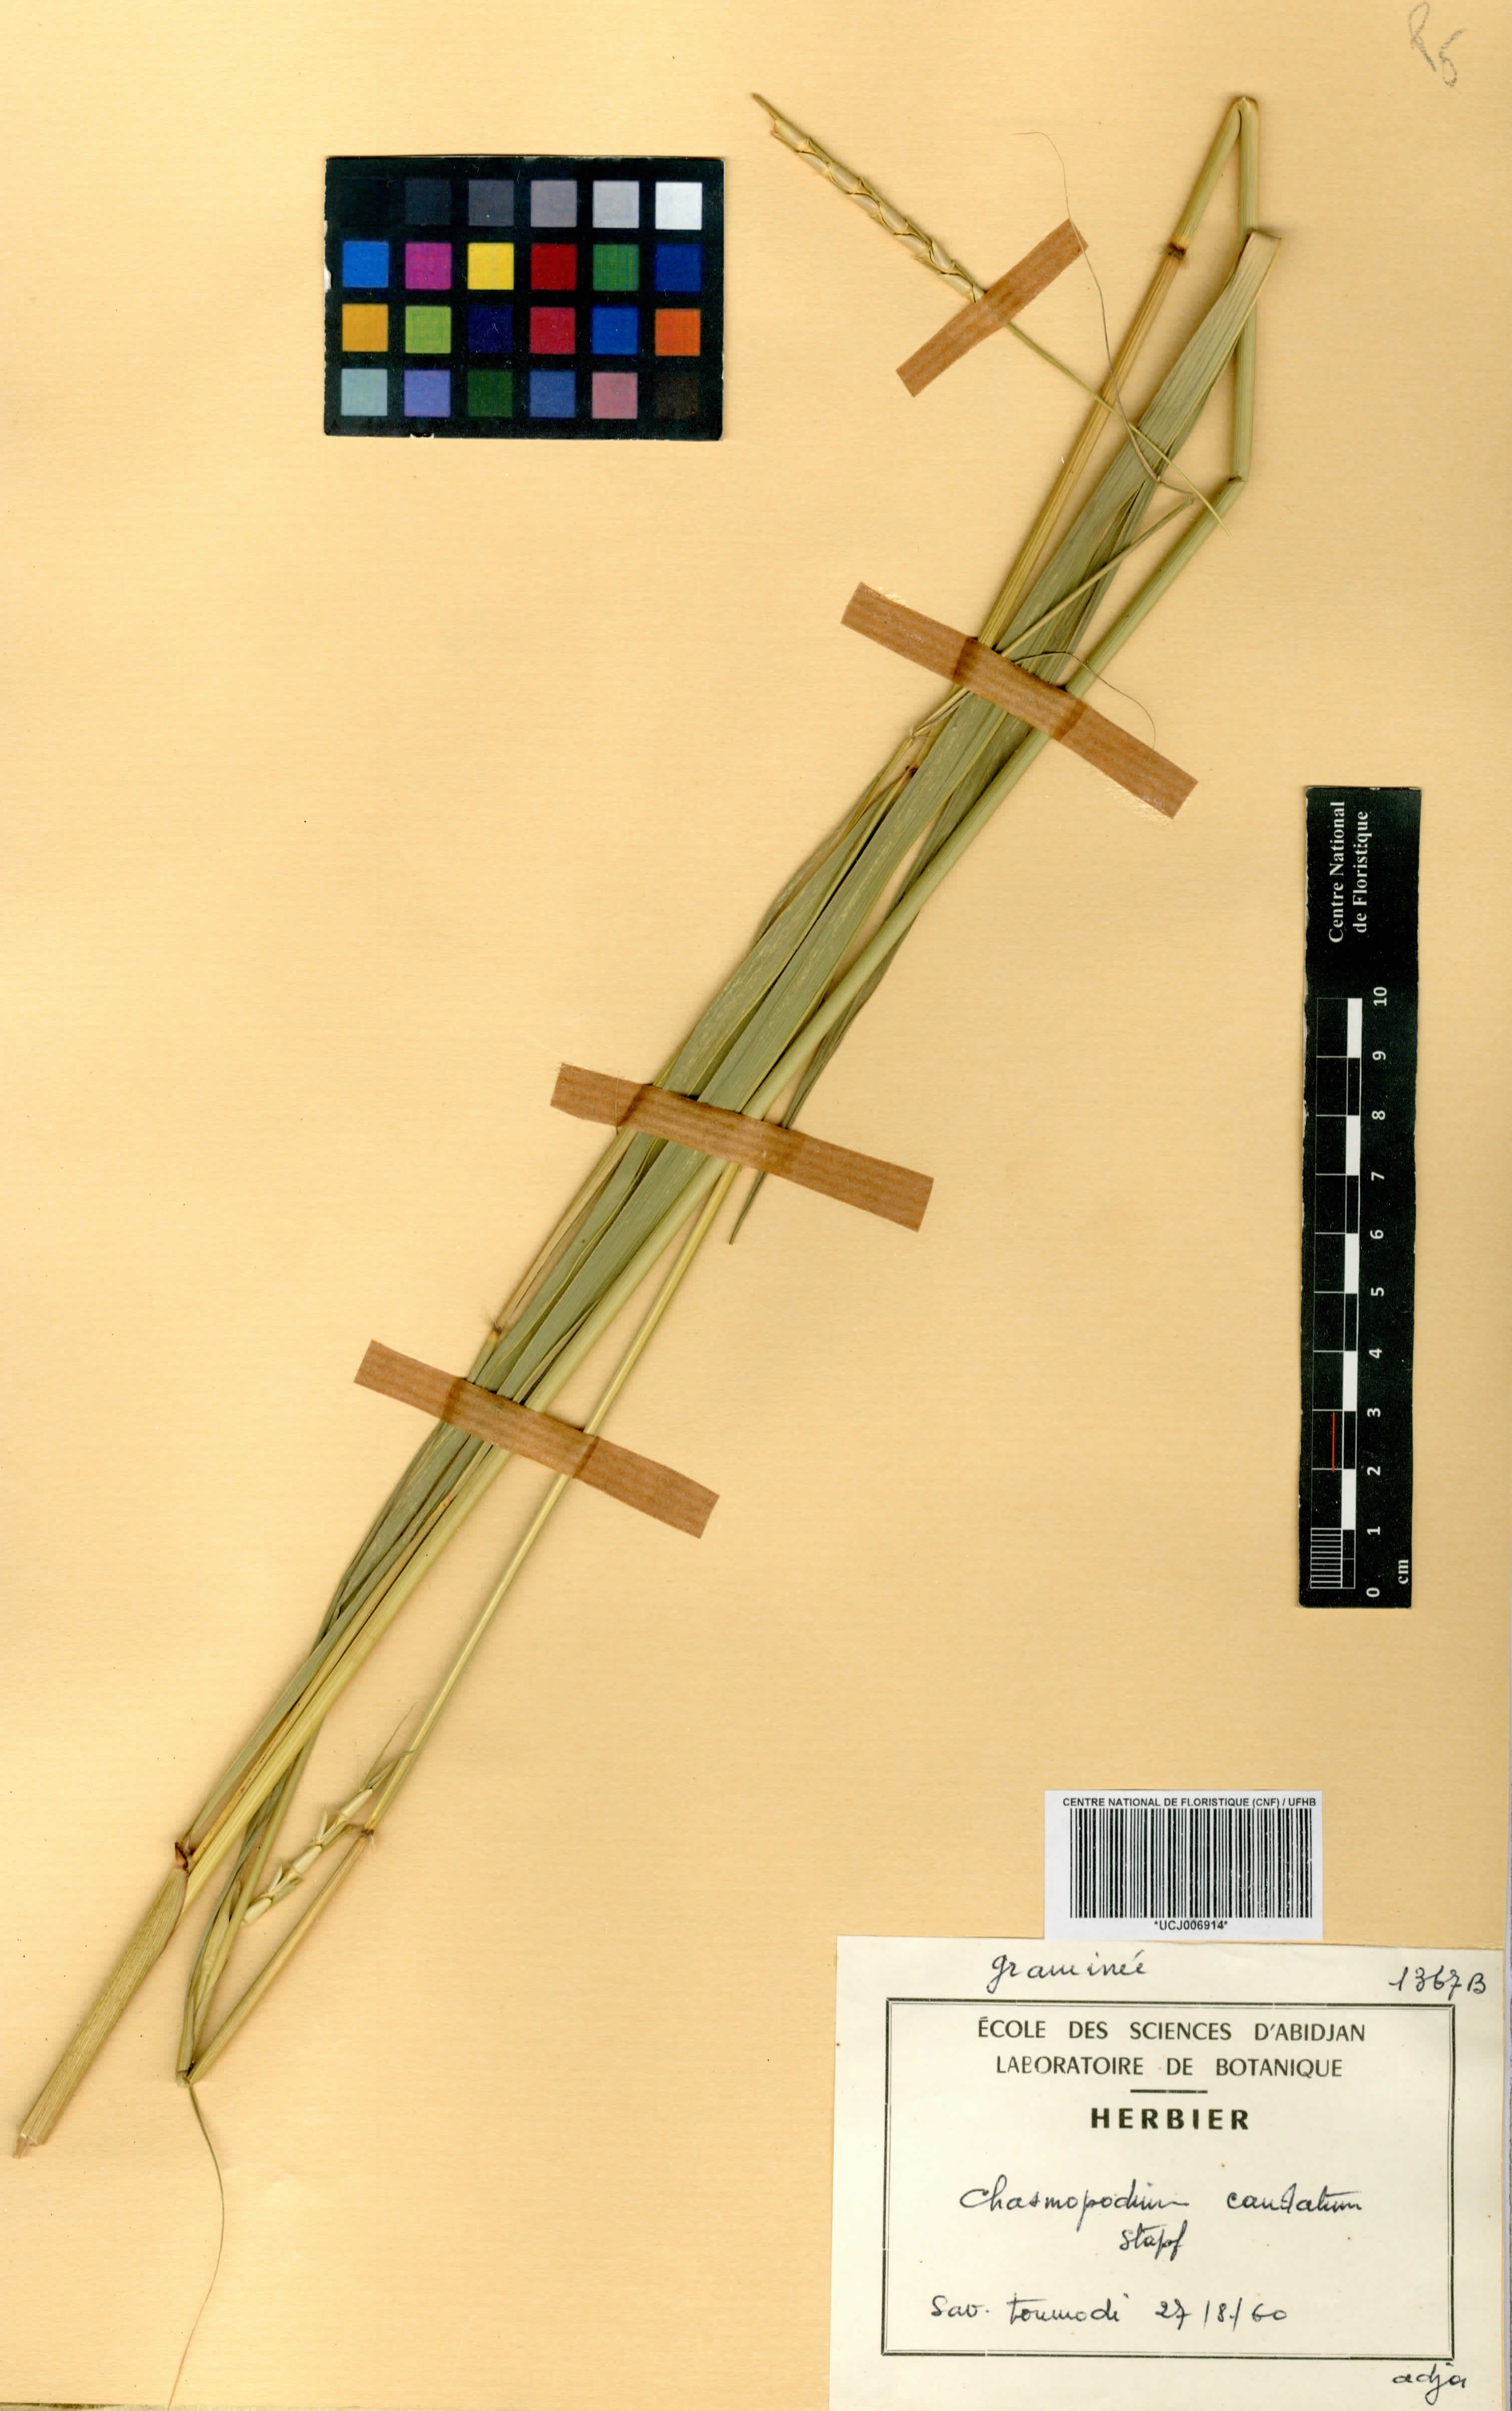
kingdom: Plantae
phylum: Tracheophyta
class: Liliopsida
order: Poales
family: Poaceae
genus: Chasmopodium
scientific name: Chasmopodium caudatum
